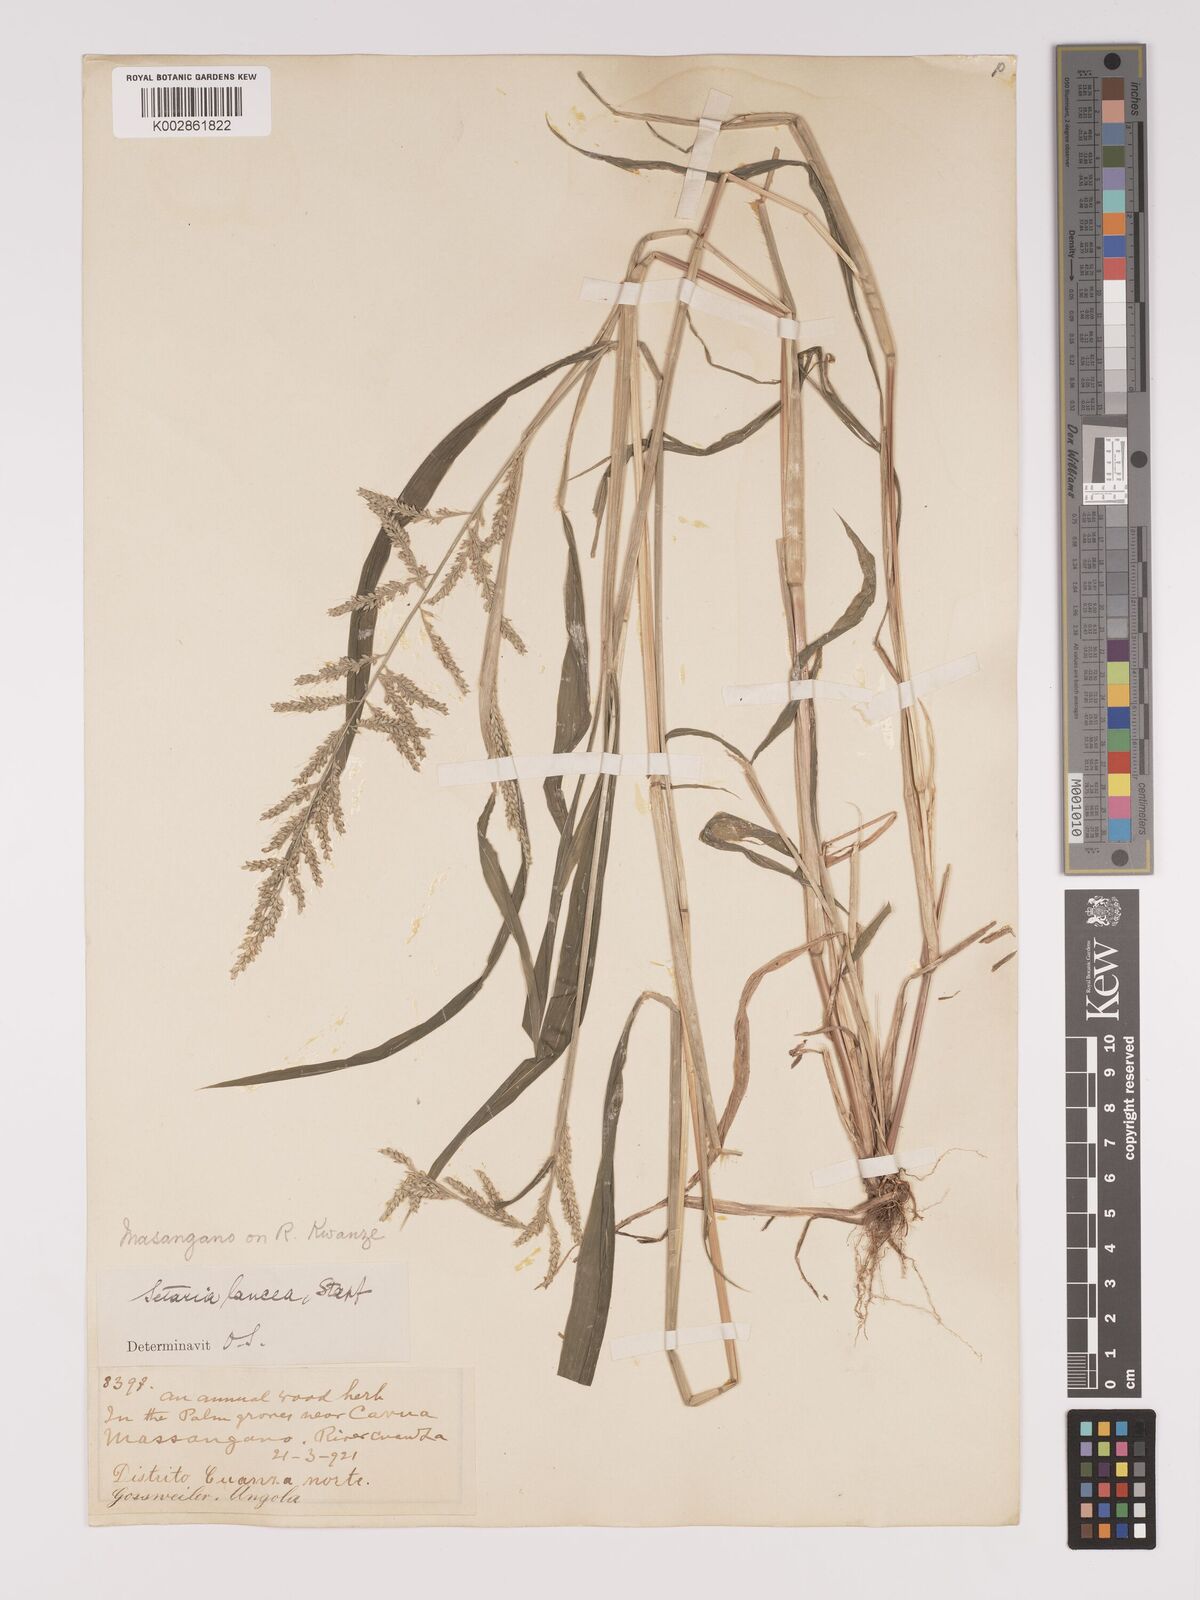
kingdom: Plantae
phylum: Tracheophyta
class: Liliopsida
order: Poales
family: Poaceae
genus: Setaria
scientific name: Setaria barbata
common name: East indian bristlegrass
